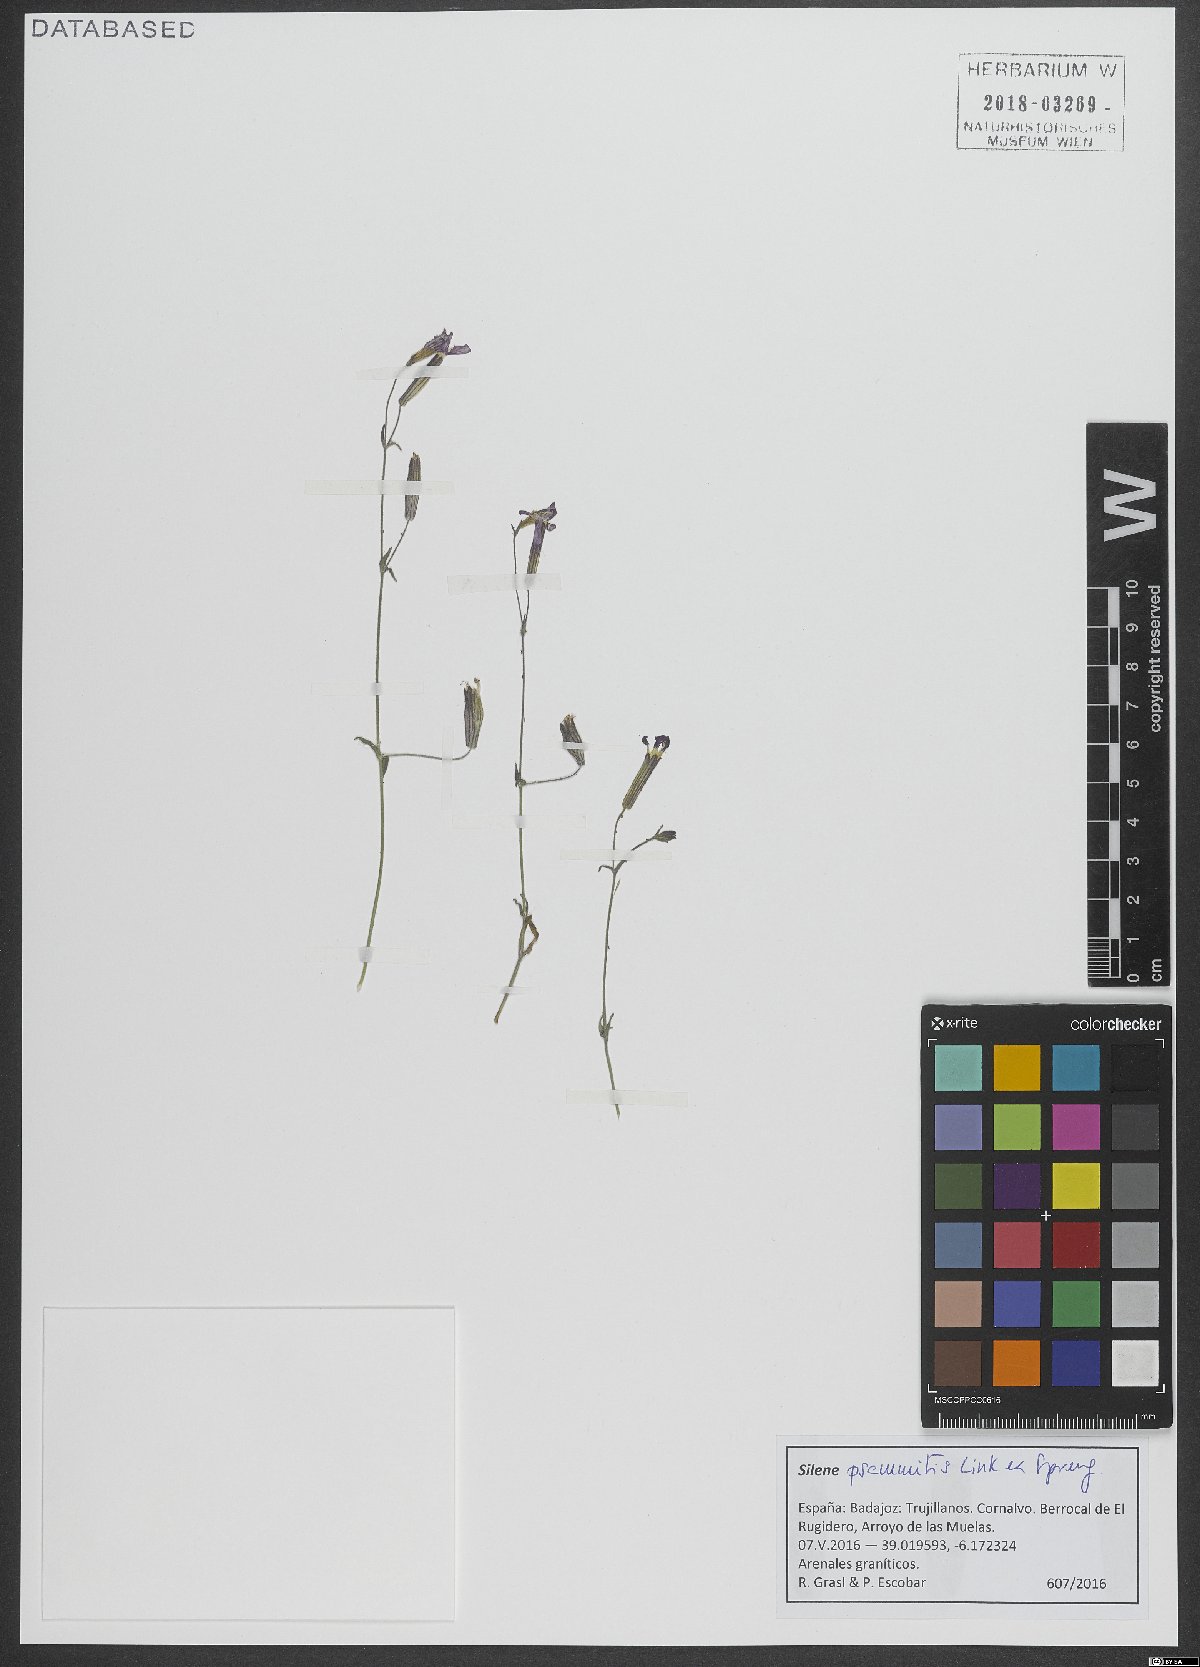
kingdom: Plantae
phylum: Tracheophyta
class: Magnoliopsida
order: Caryophyllales
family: Caryophyllaceae
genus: Silene
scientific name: Silene psammitis
